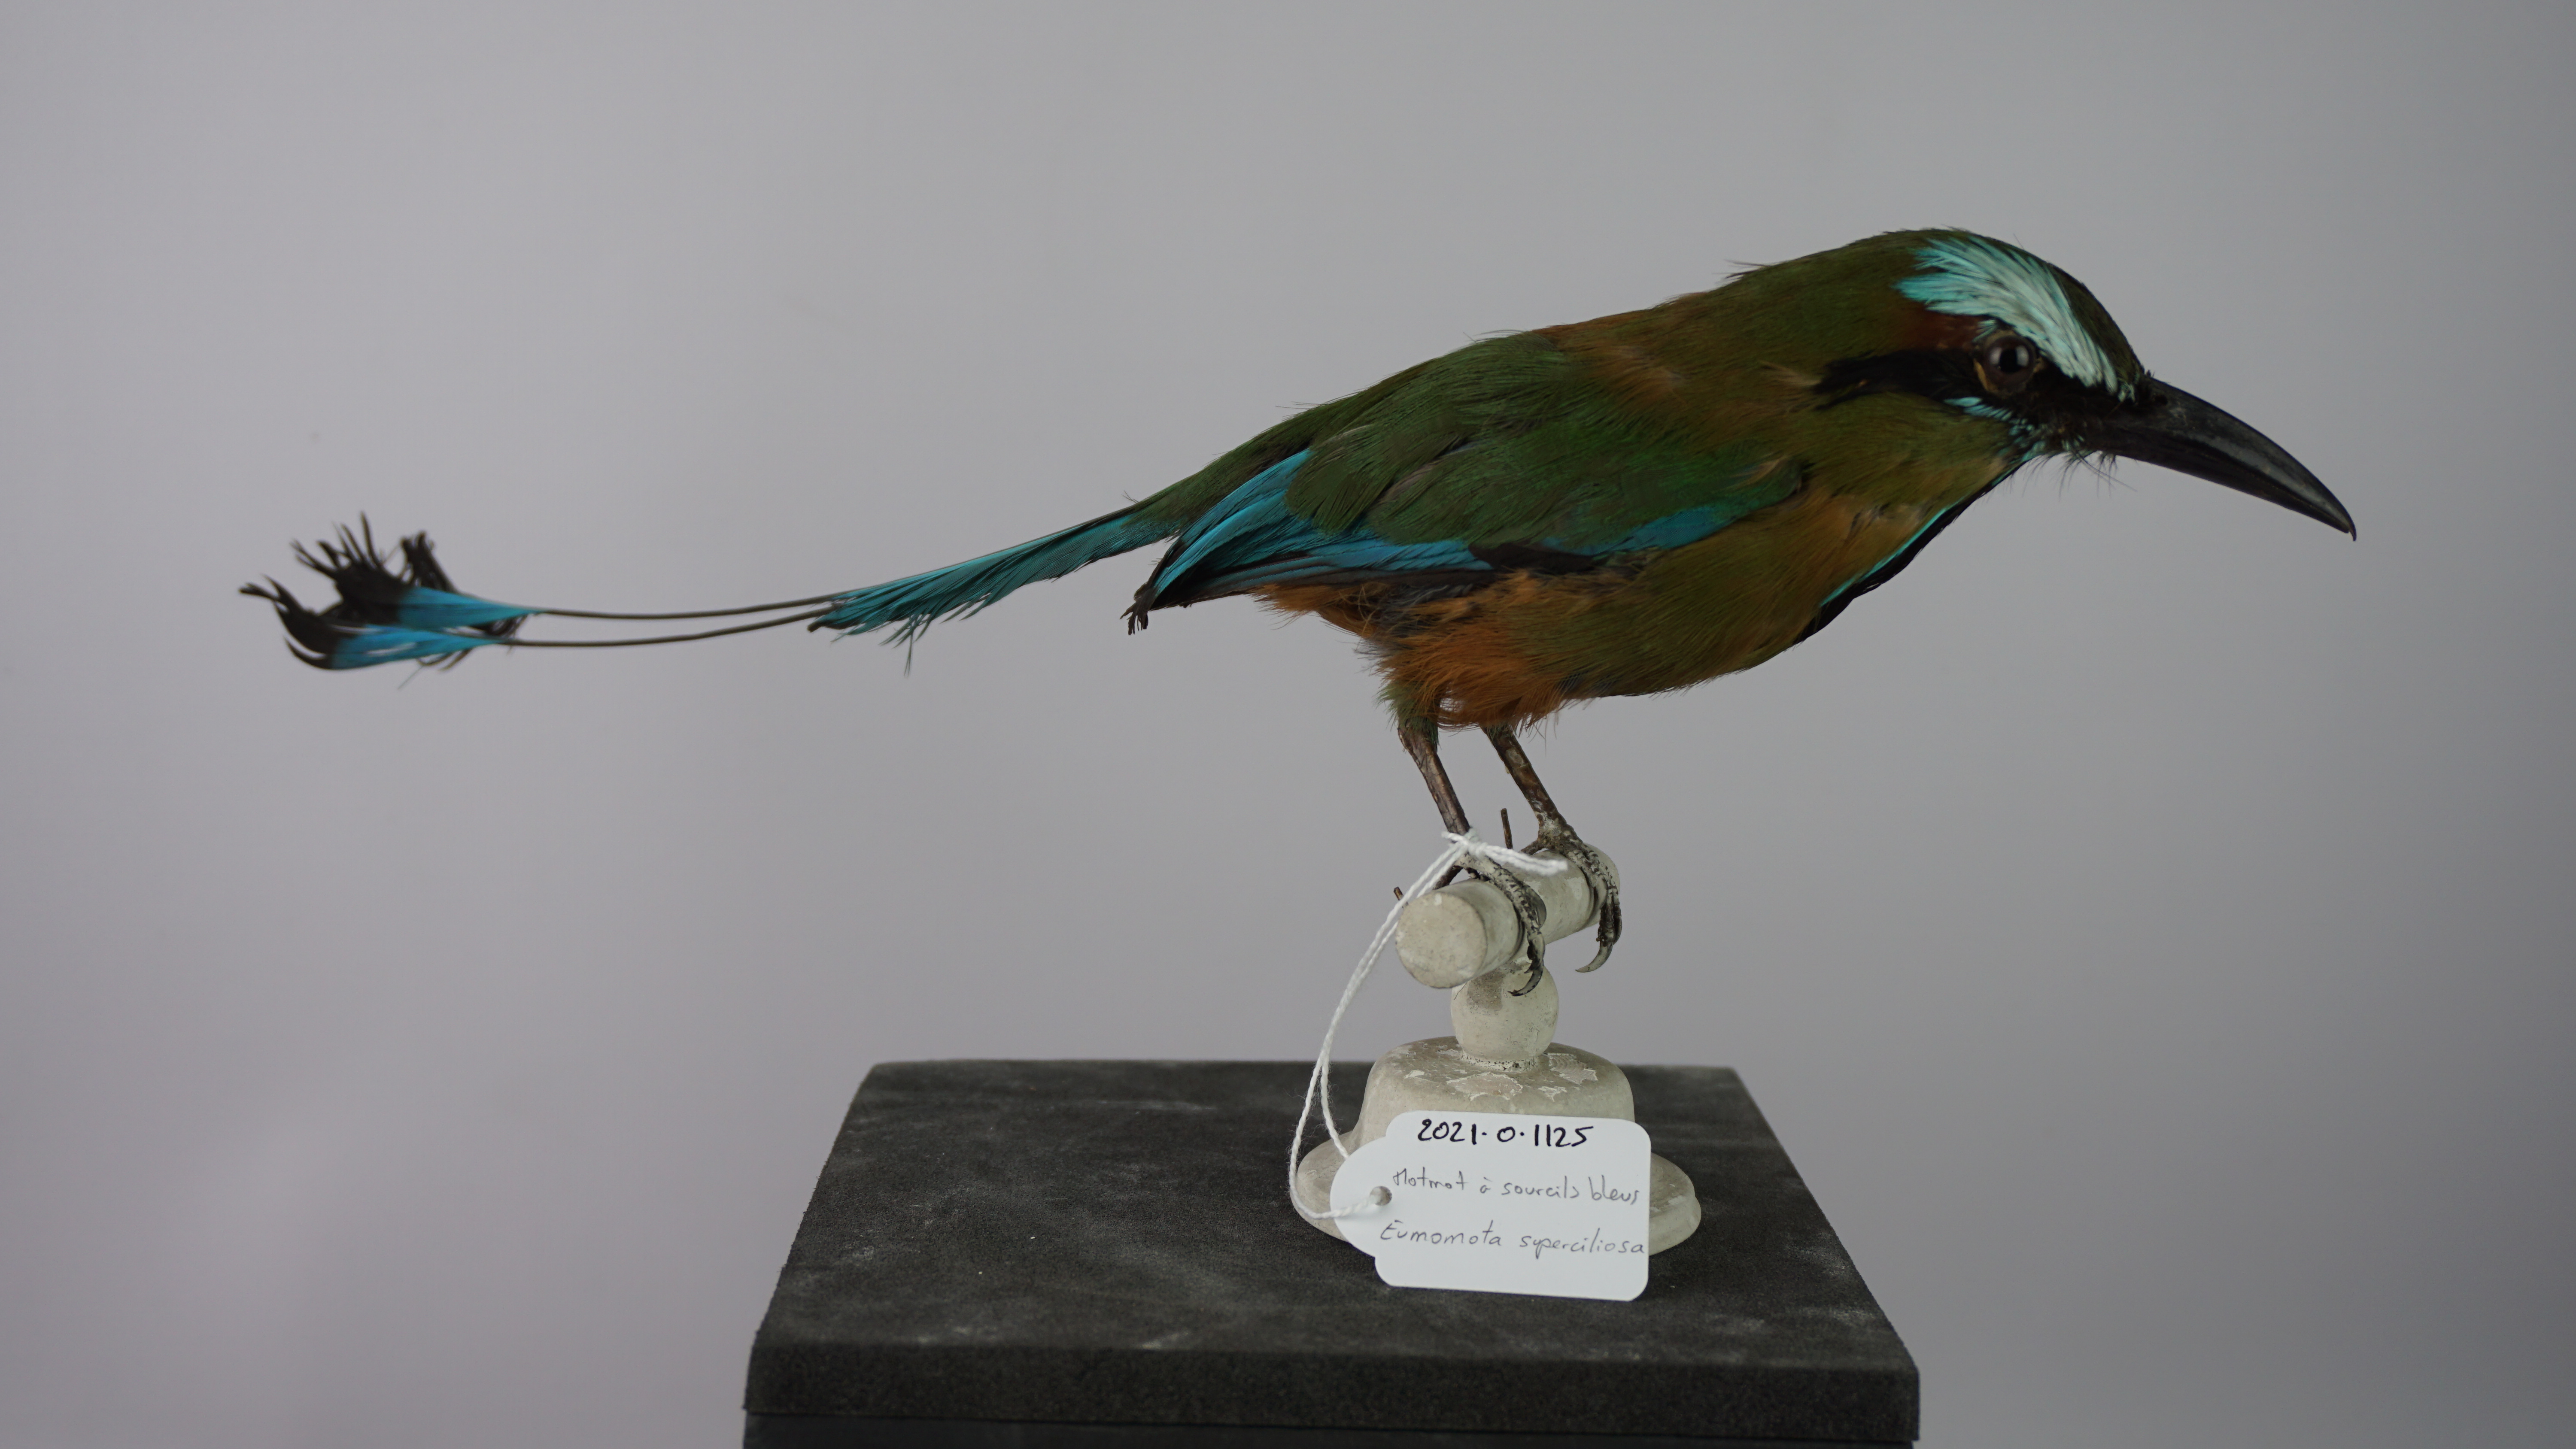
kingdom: Animalia
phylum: Chordata
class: Aves
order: Coraciiformes
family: Momotidae
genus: Eumomota
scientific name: Eumomota superciliosa
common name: Turquoise-browed motmot
